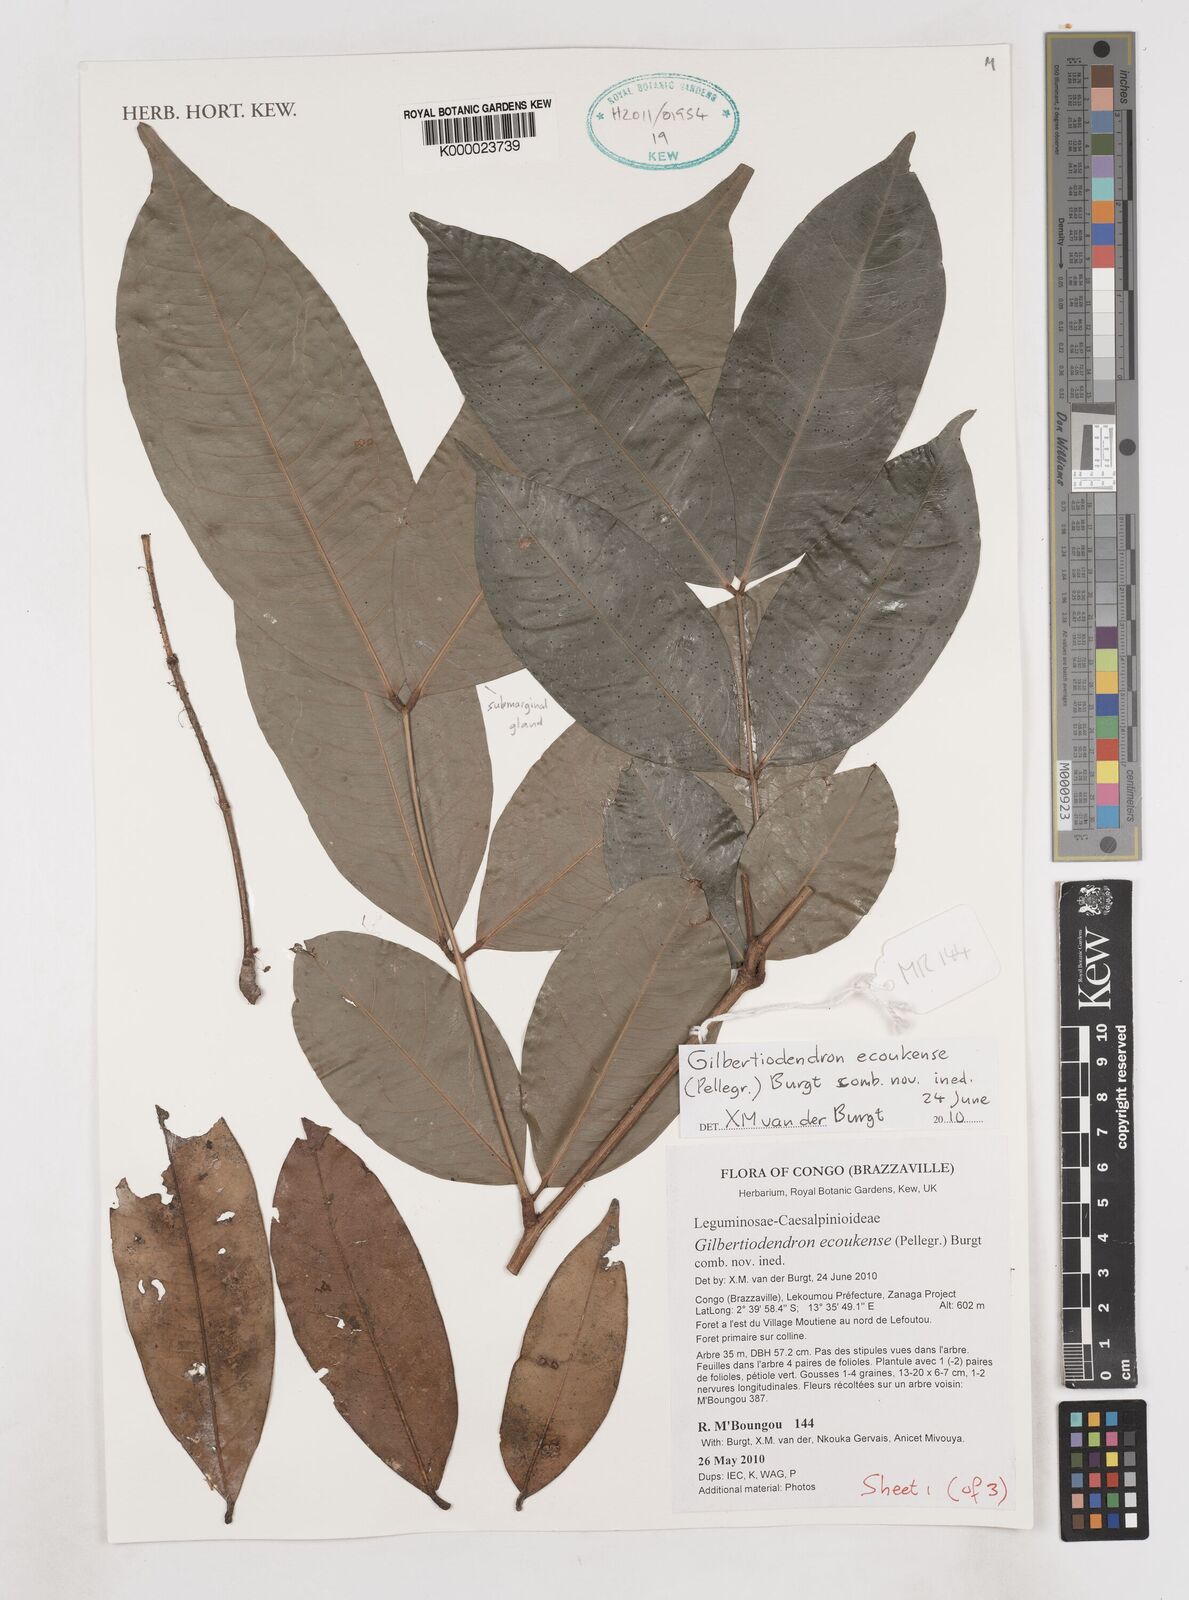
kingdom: Plantae
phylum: Tracheophyta
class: Magnoliopsida
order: Fabales
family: Fabaceae
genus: Gilbertiodendron
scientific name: Gilbertiodendron ecoukense
